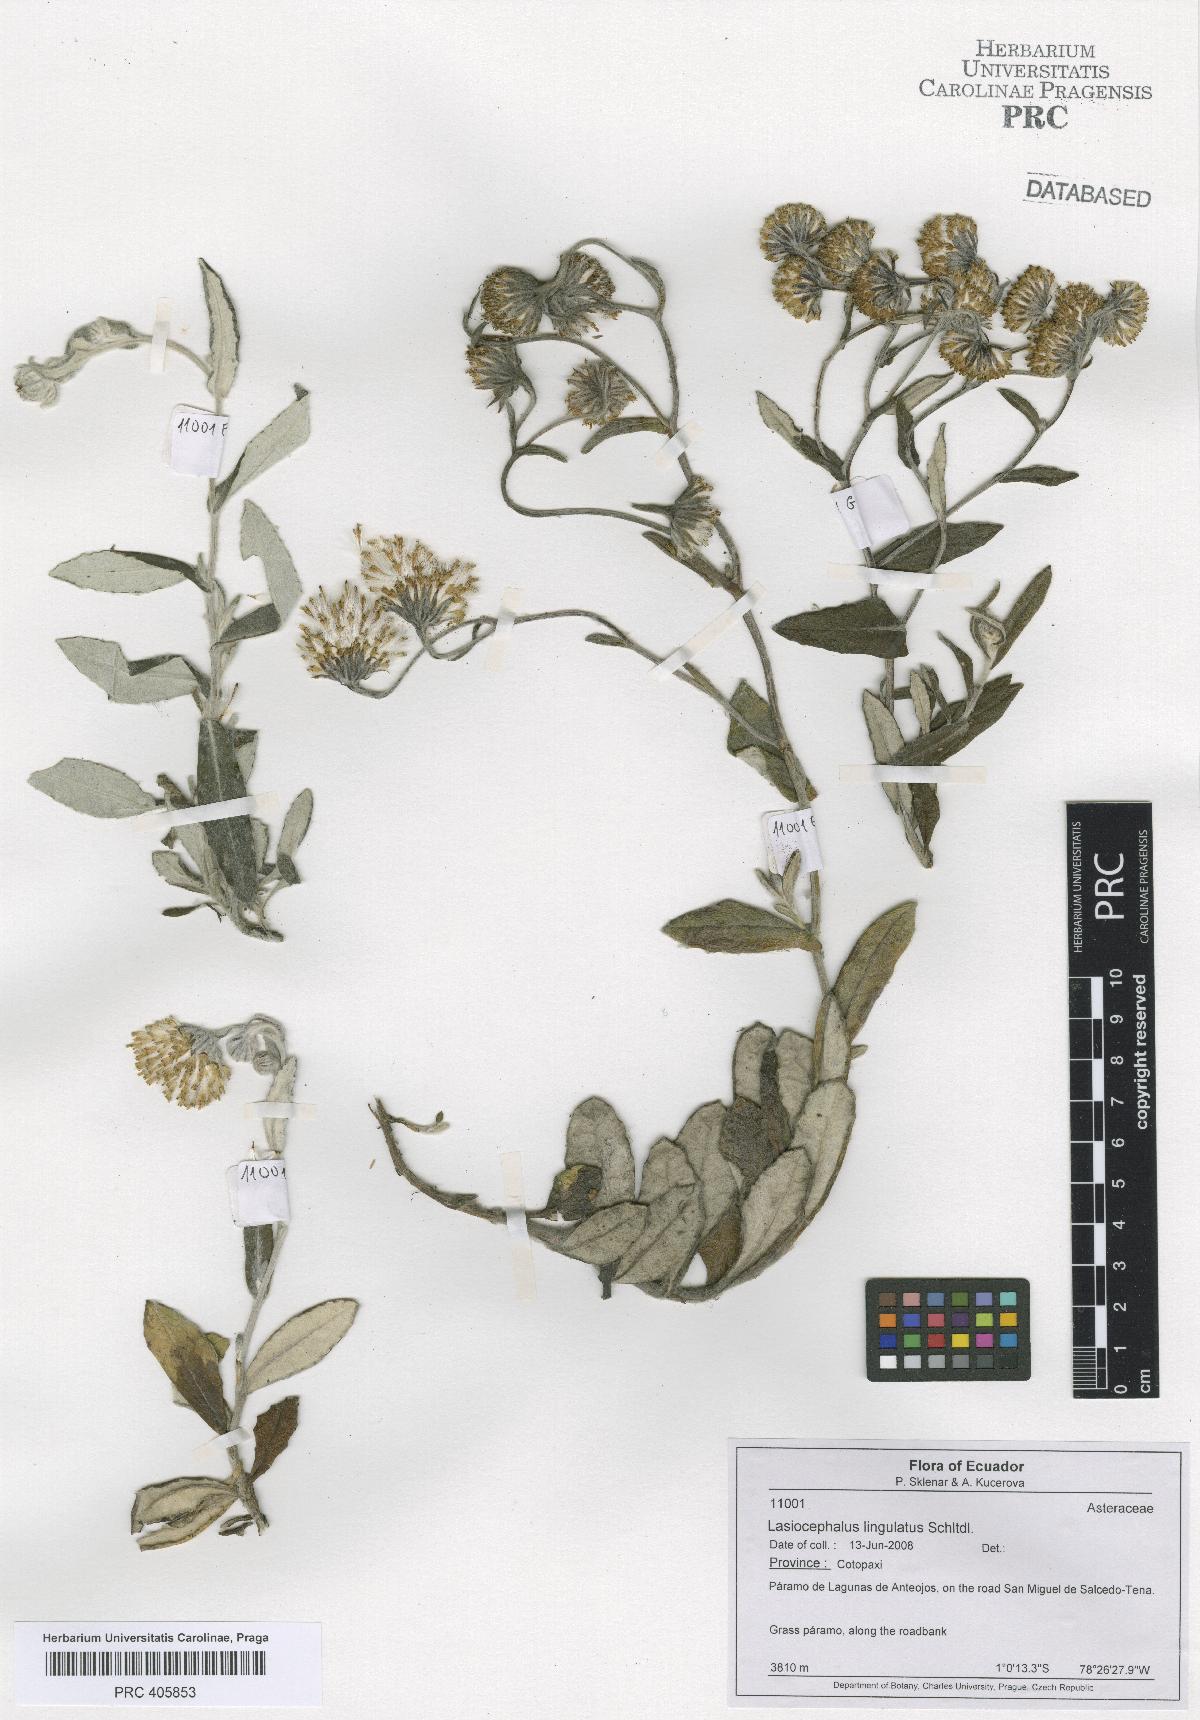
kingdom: Plantae
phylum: Tracheophyta
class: Magnoliopsida
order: Asterales
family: Asteraceae
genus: Lasiocephalus
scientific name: Lasiocephalus lingulatus
